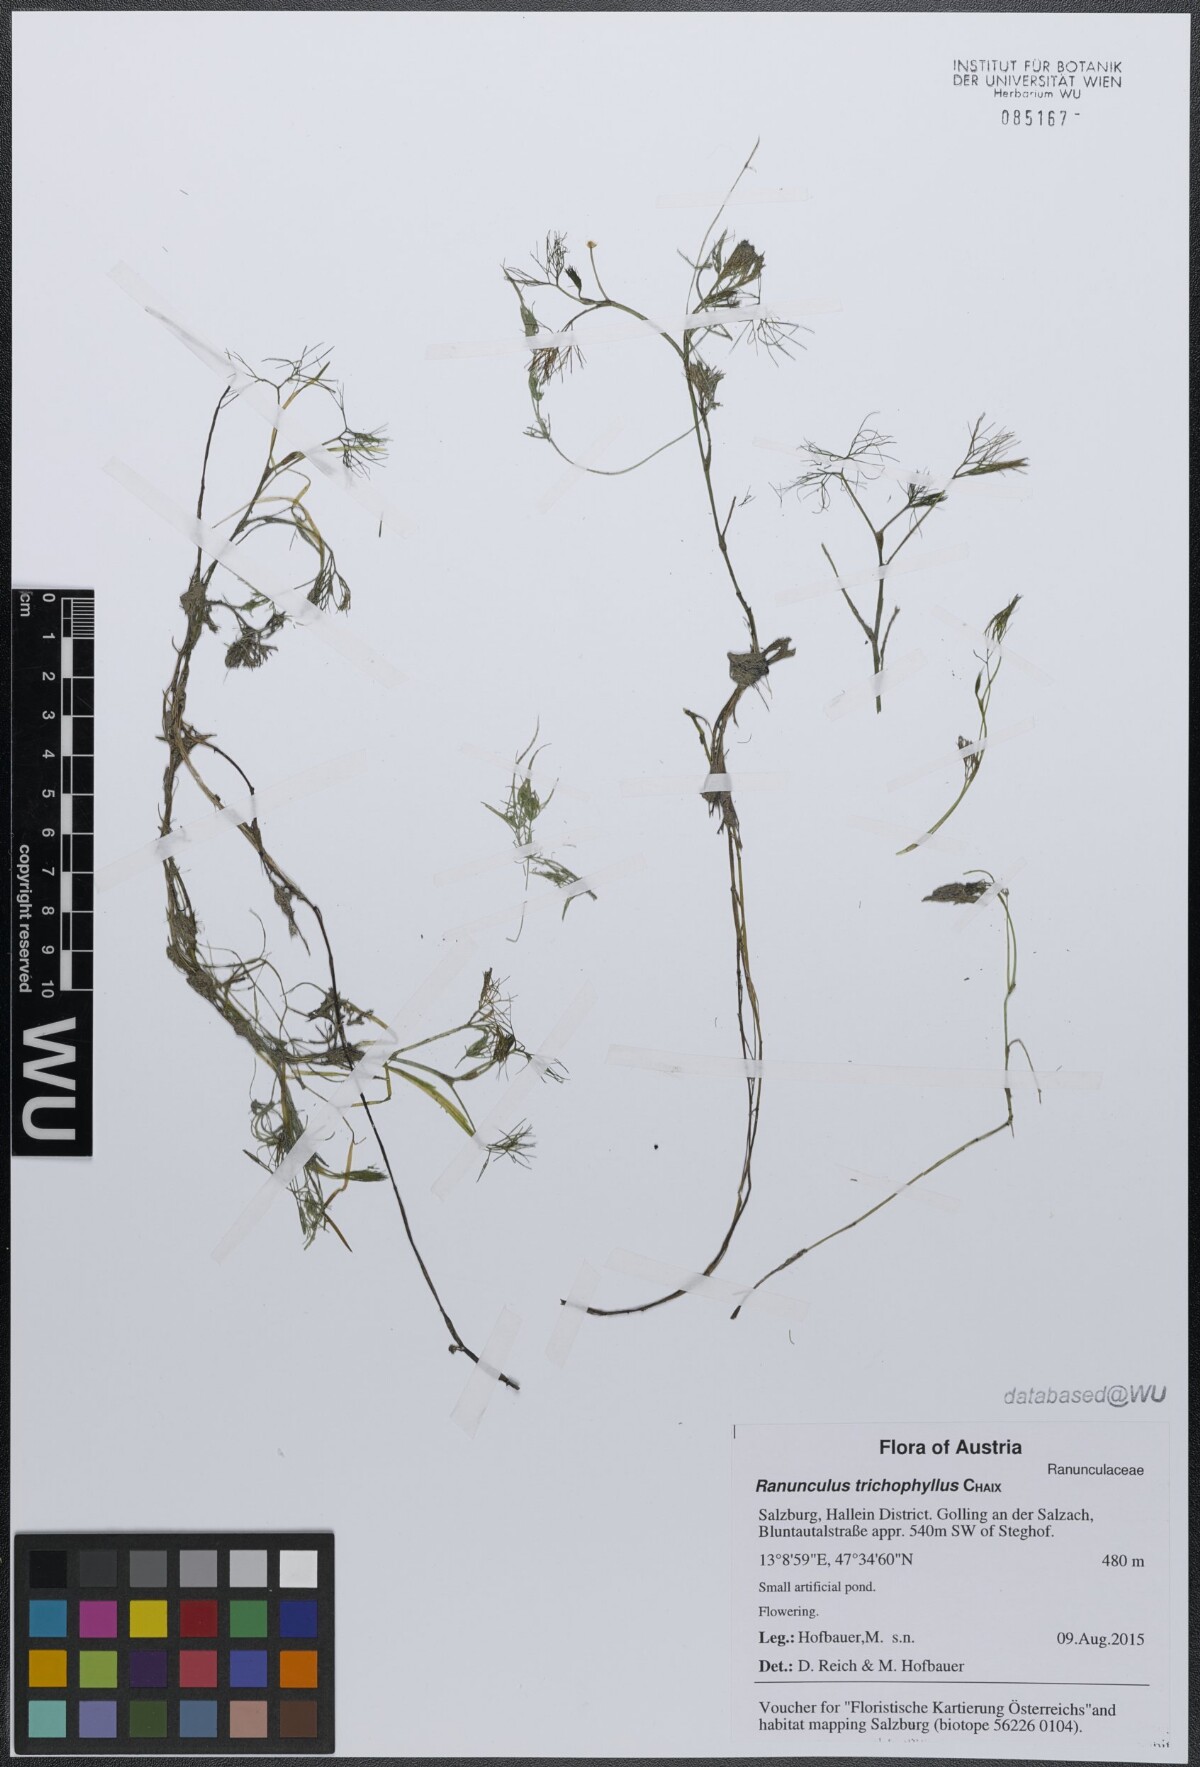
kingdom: Plantae
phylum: Tracheophyta
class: Magnoliopsida
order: Ranunculales
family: Ranunculaceae
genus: Ranunculus
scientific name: Ranunculus trichophyllus
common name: Thread-leaved water-crowfoot
